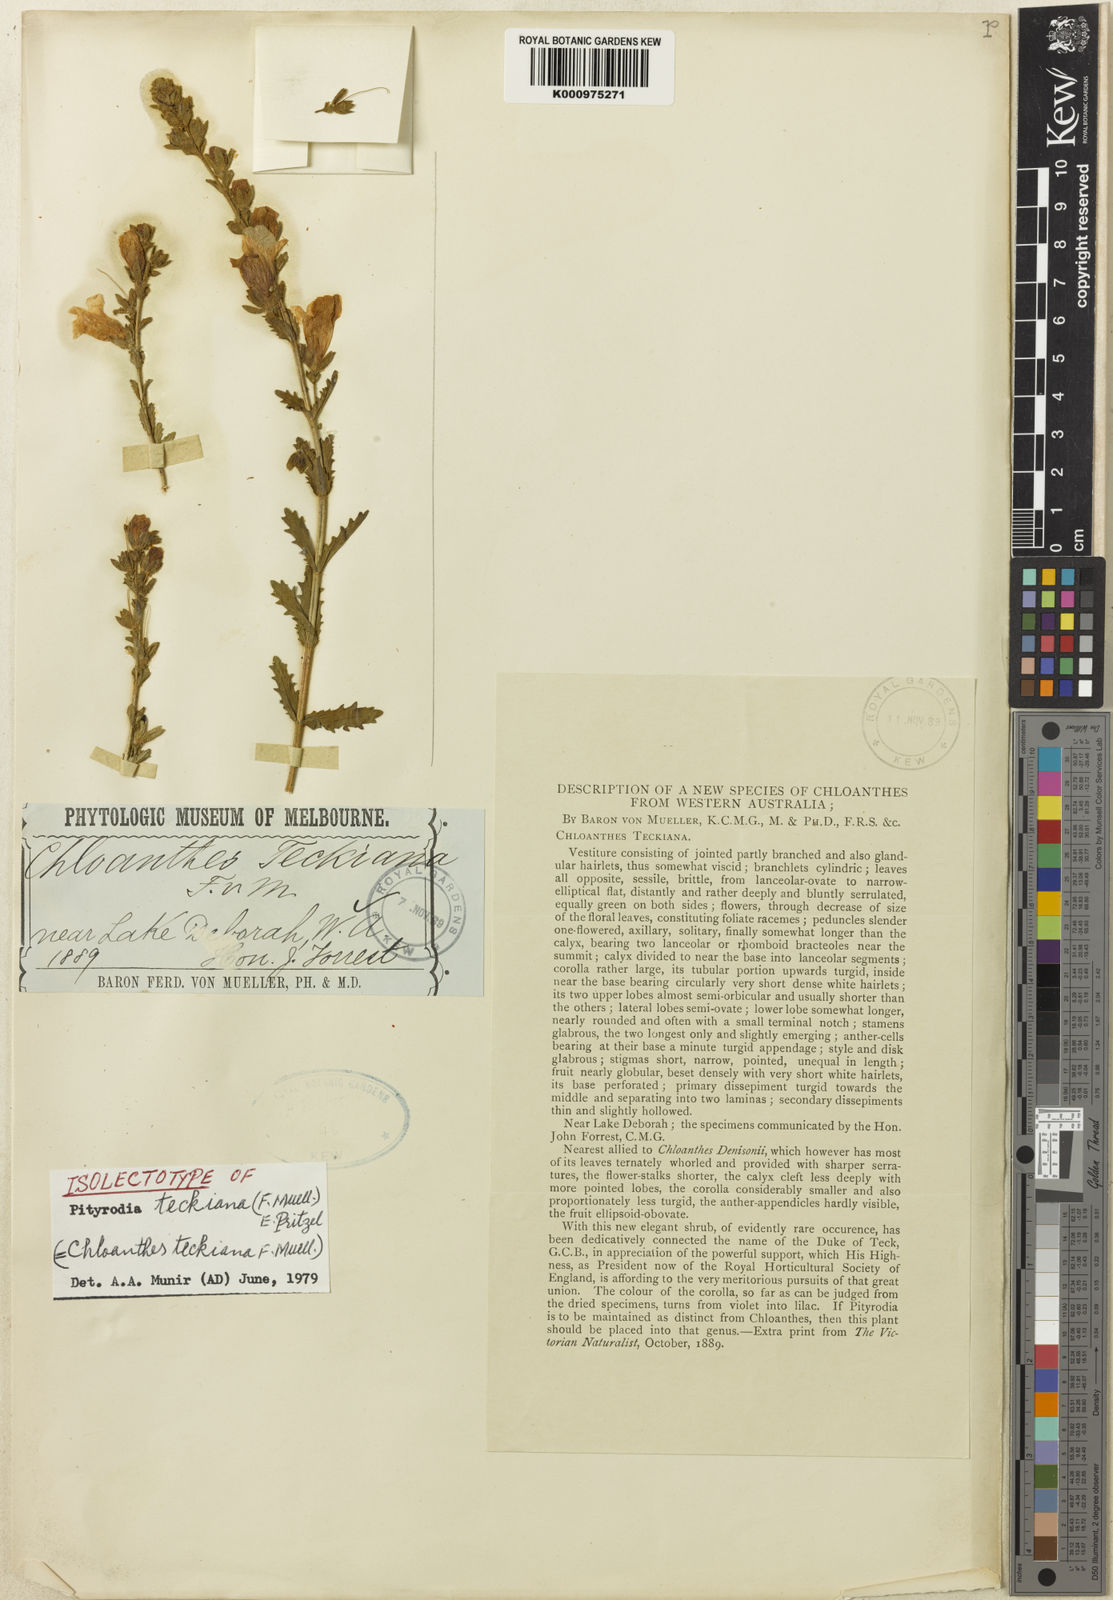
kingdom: Plantae
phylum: Tracheophyta
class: Magnoliopsida
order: Lamiales
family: Lamiaceae
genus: Dasymalla
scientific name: Dasymalla teckiana
